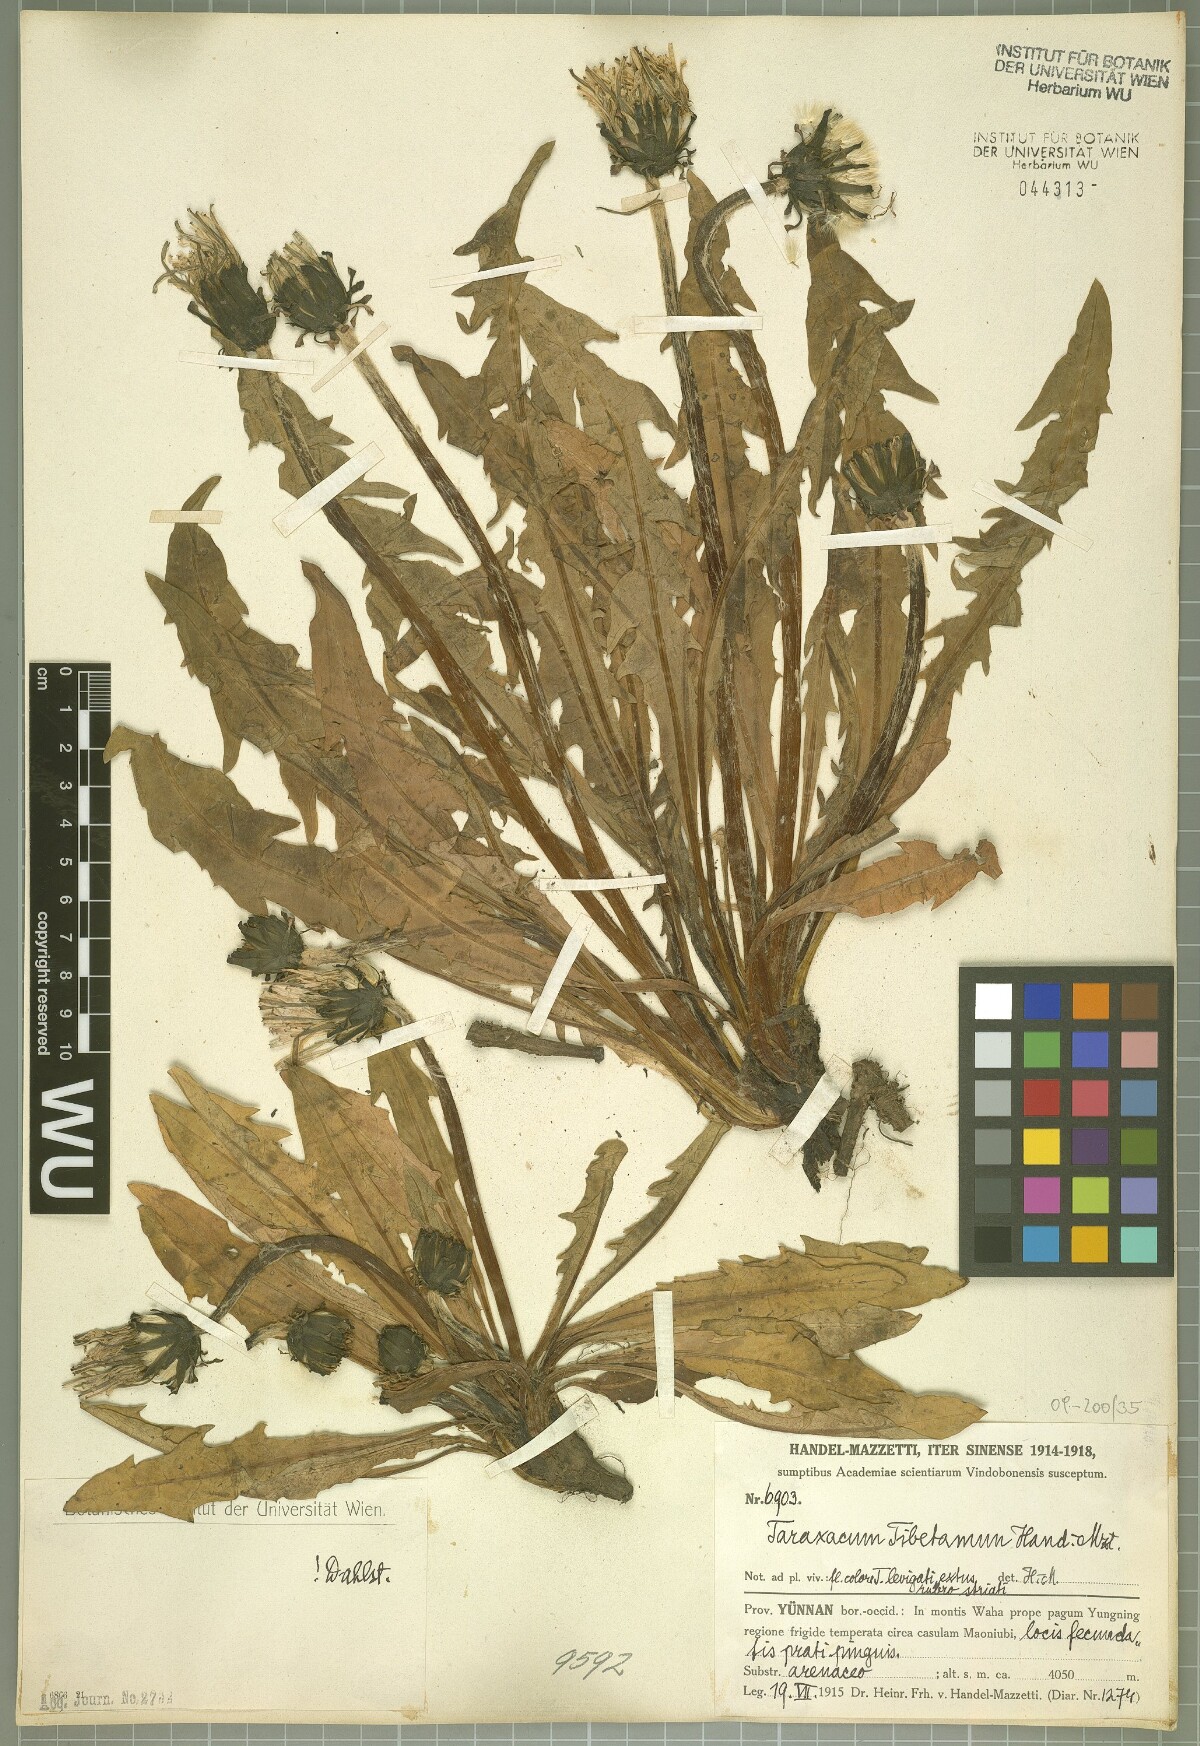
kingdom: Plantae
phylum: Tracheophyta
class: Magnoliopsida
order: Asterales
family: Asteraceae
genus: Taraxacum
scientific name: Taraxacum tibetanum
